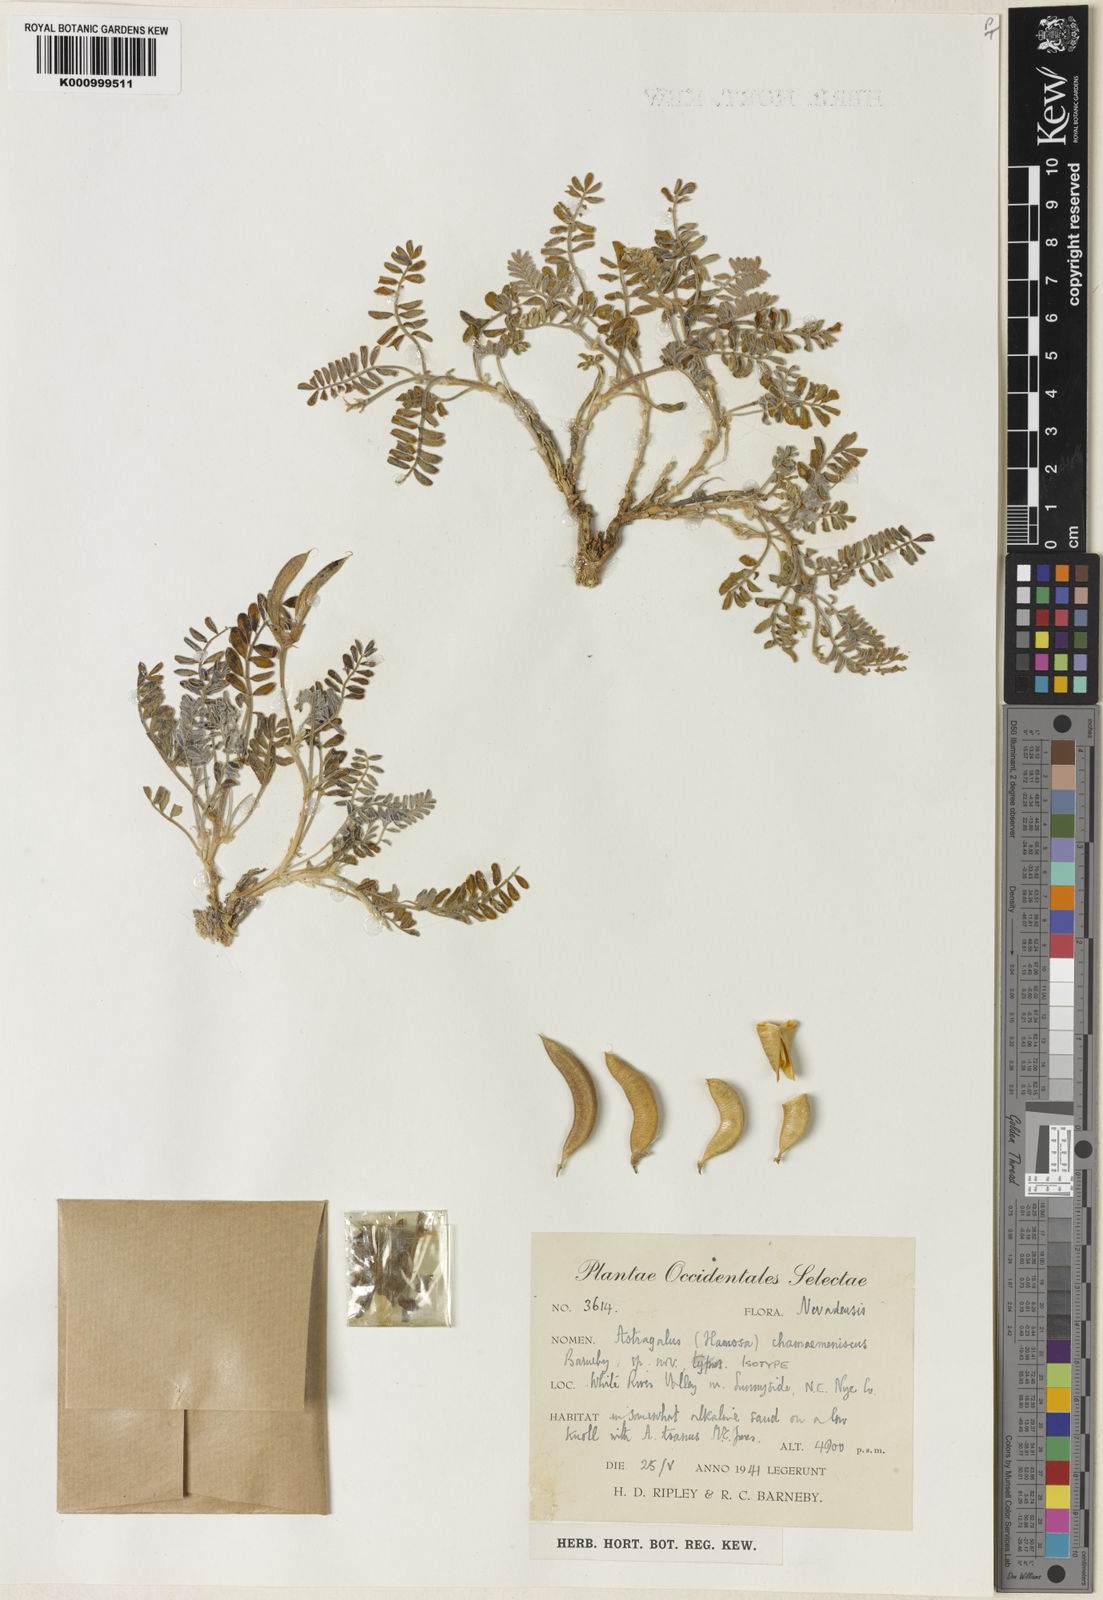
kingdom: Plantae
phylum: Tracheophyta
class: Magnoliopsida
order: Fabales
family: Fabaceae
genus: Astragalus
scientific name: Astragalus chamaemeniscus
